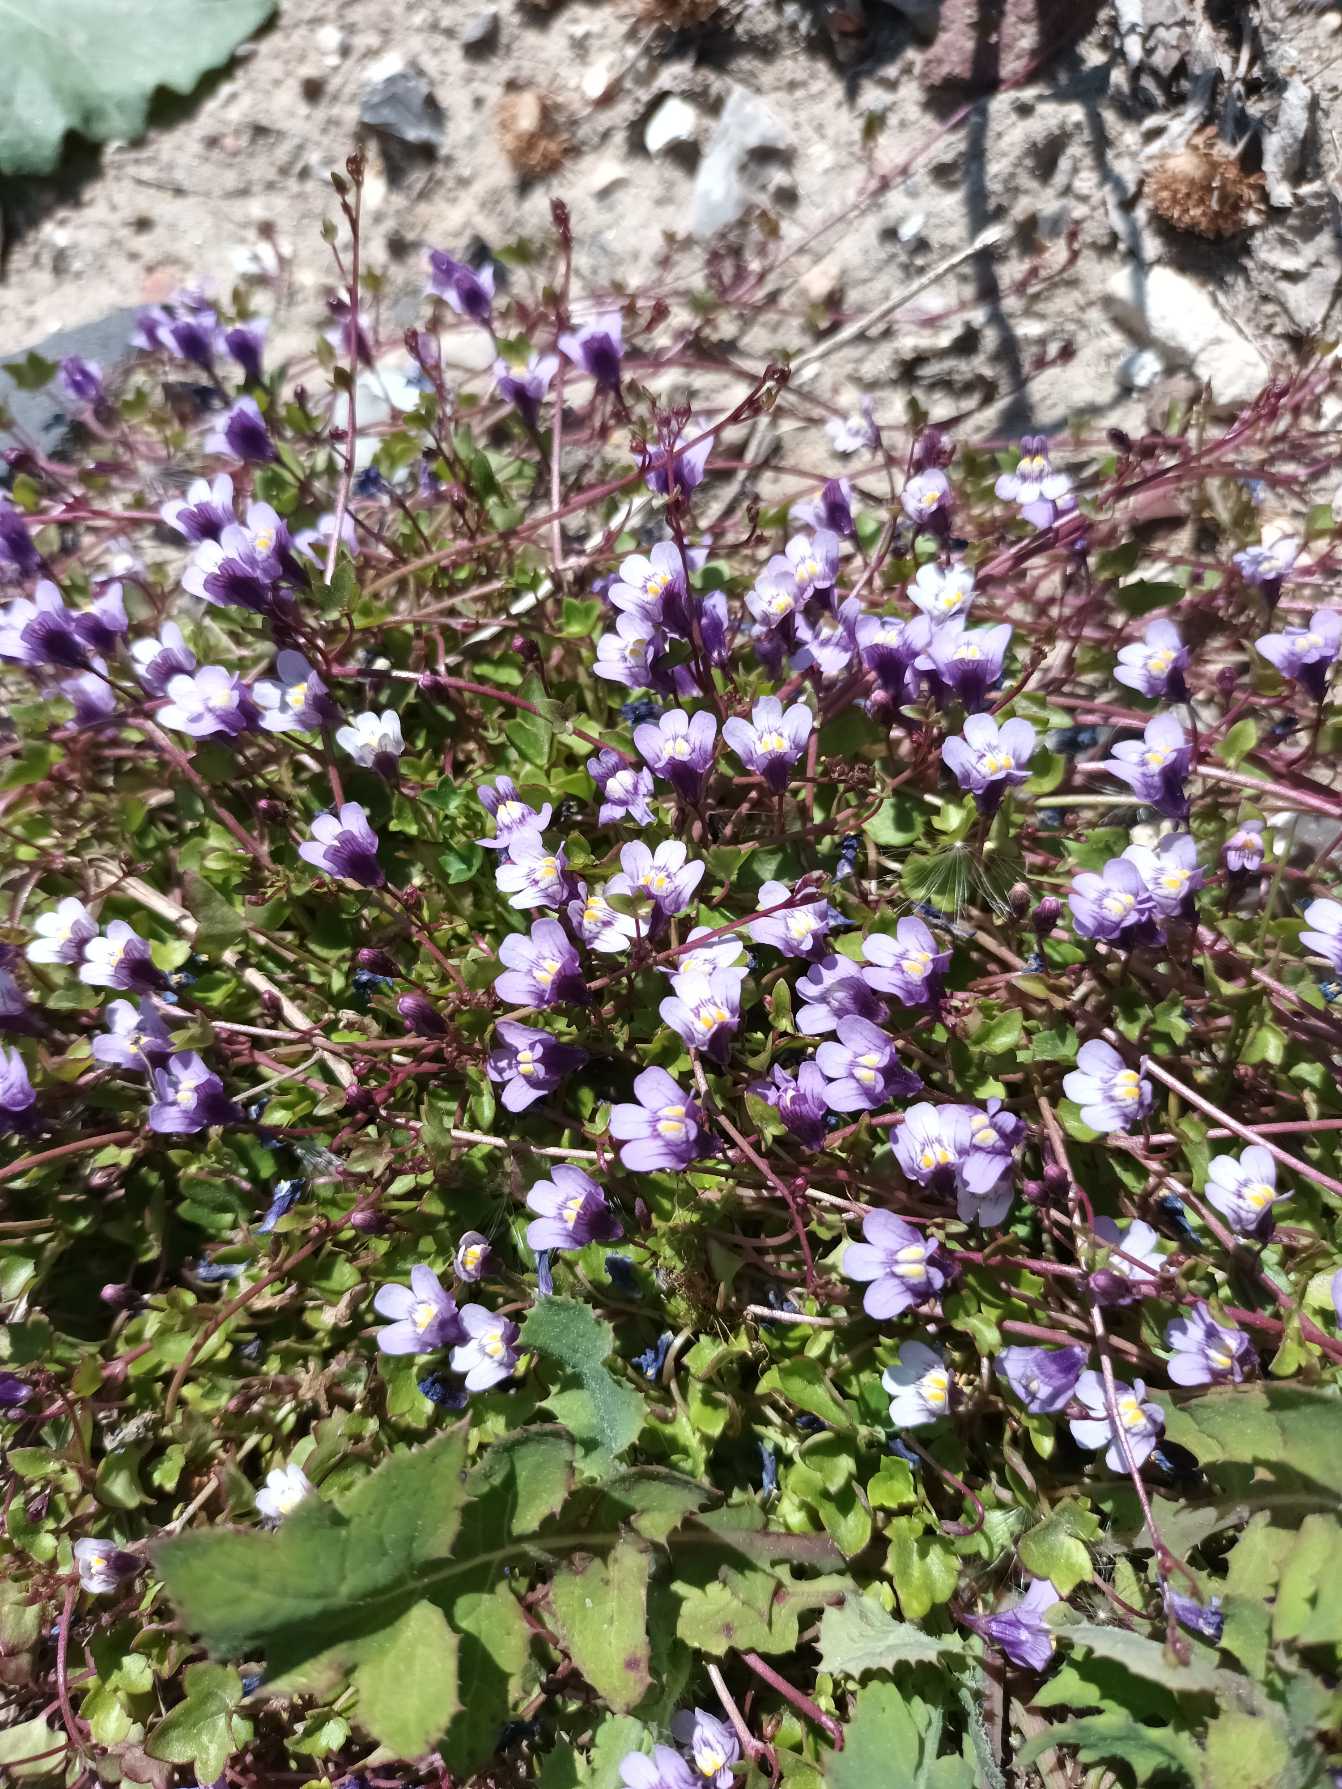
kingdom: Plantae
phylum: Tracheophyta
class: Magnoliopsida
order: Lamiales
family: Plantaginaceae
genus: Cymbalaria
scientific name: Cymbalaria muralis
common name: Vedbend-torskemund
